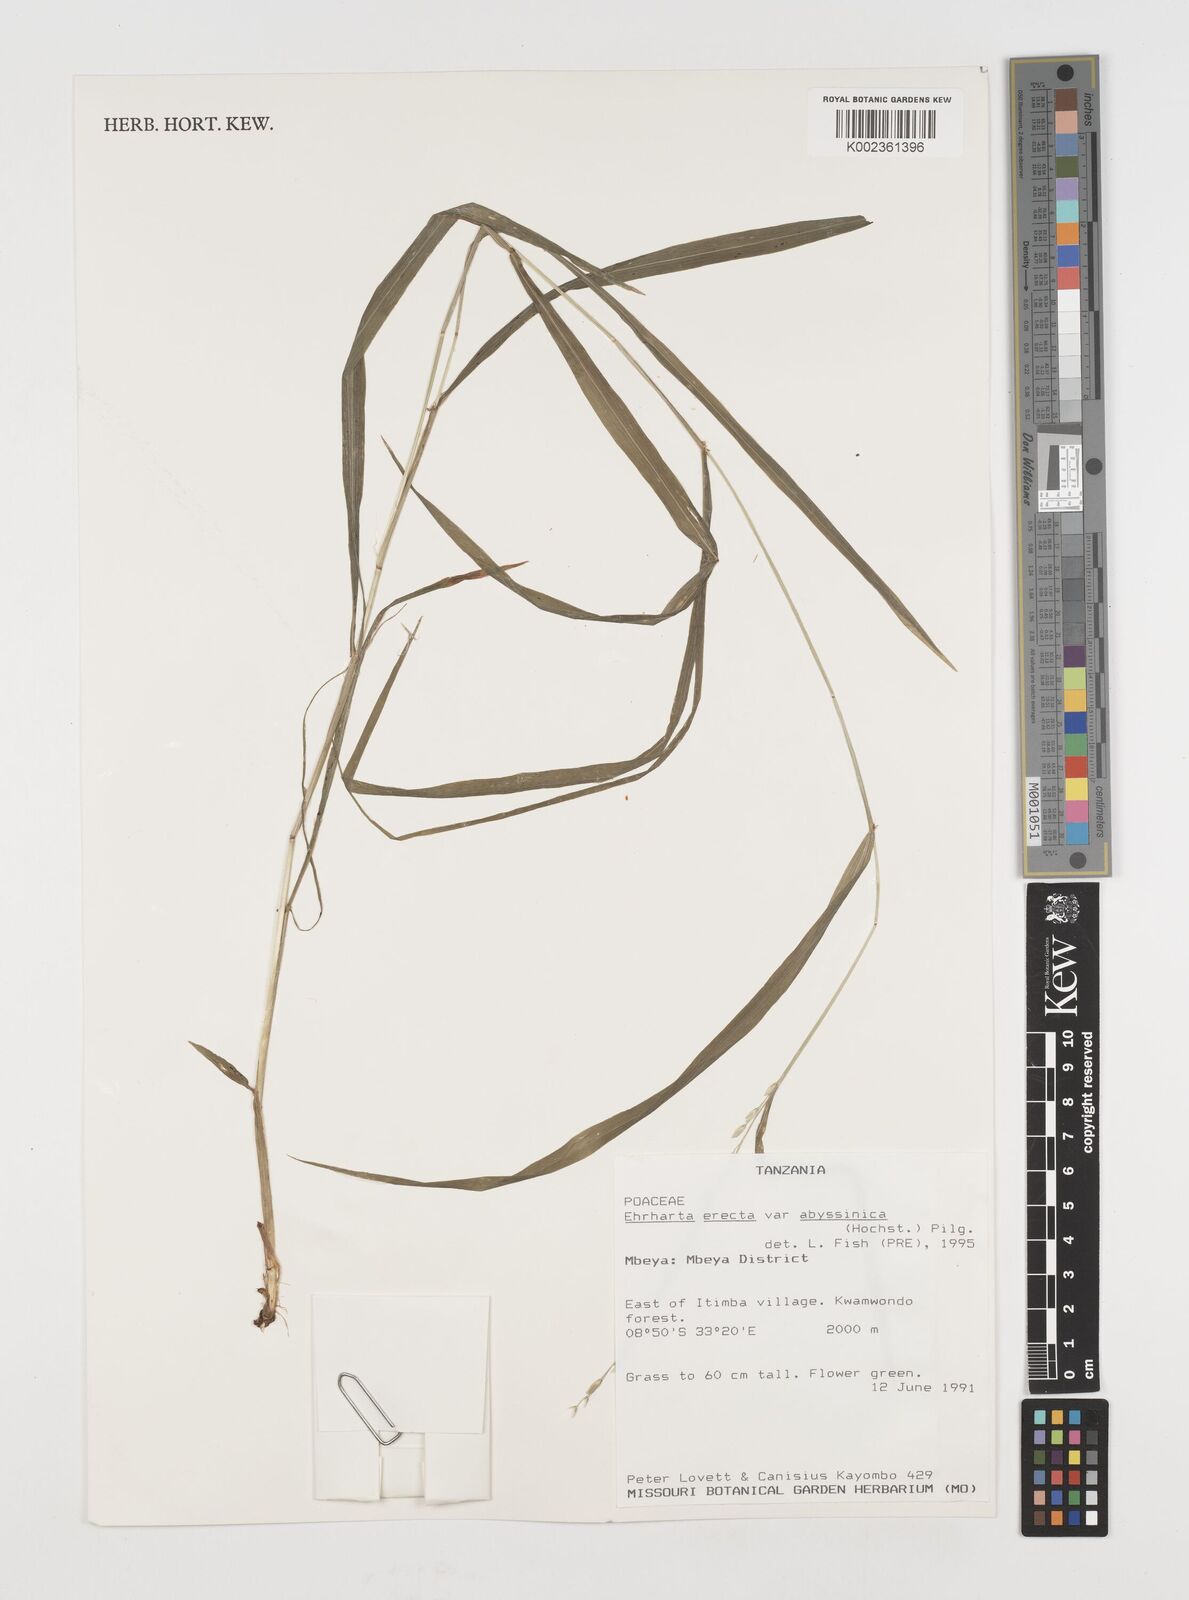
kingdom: Plantae
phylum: Tracheophyta
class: Liliopsida
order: Poales
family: Poaceae
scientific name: Poaceae
